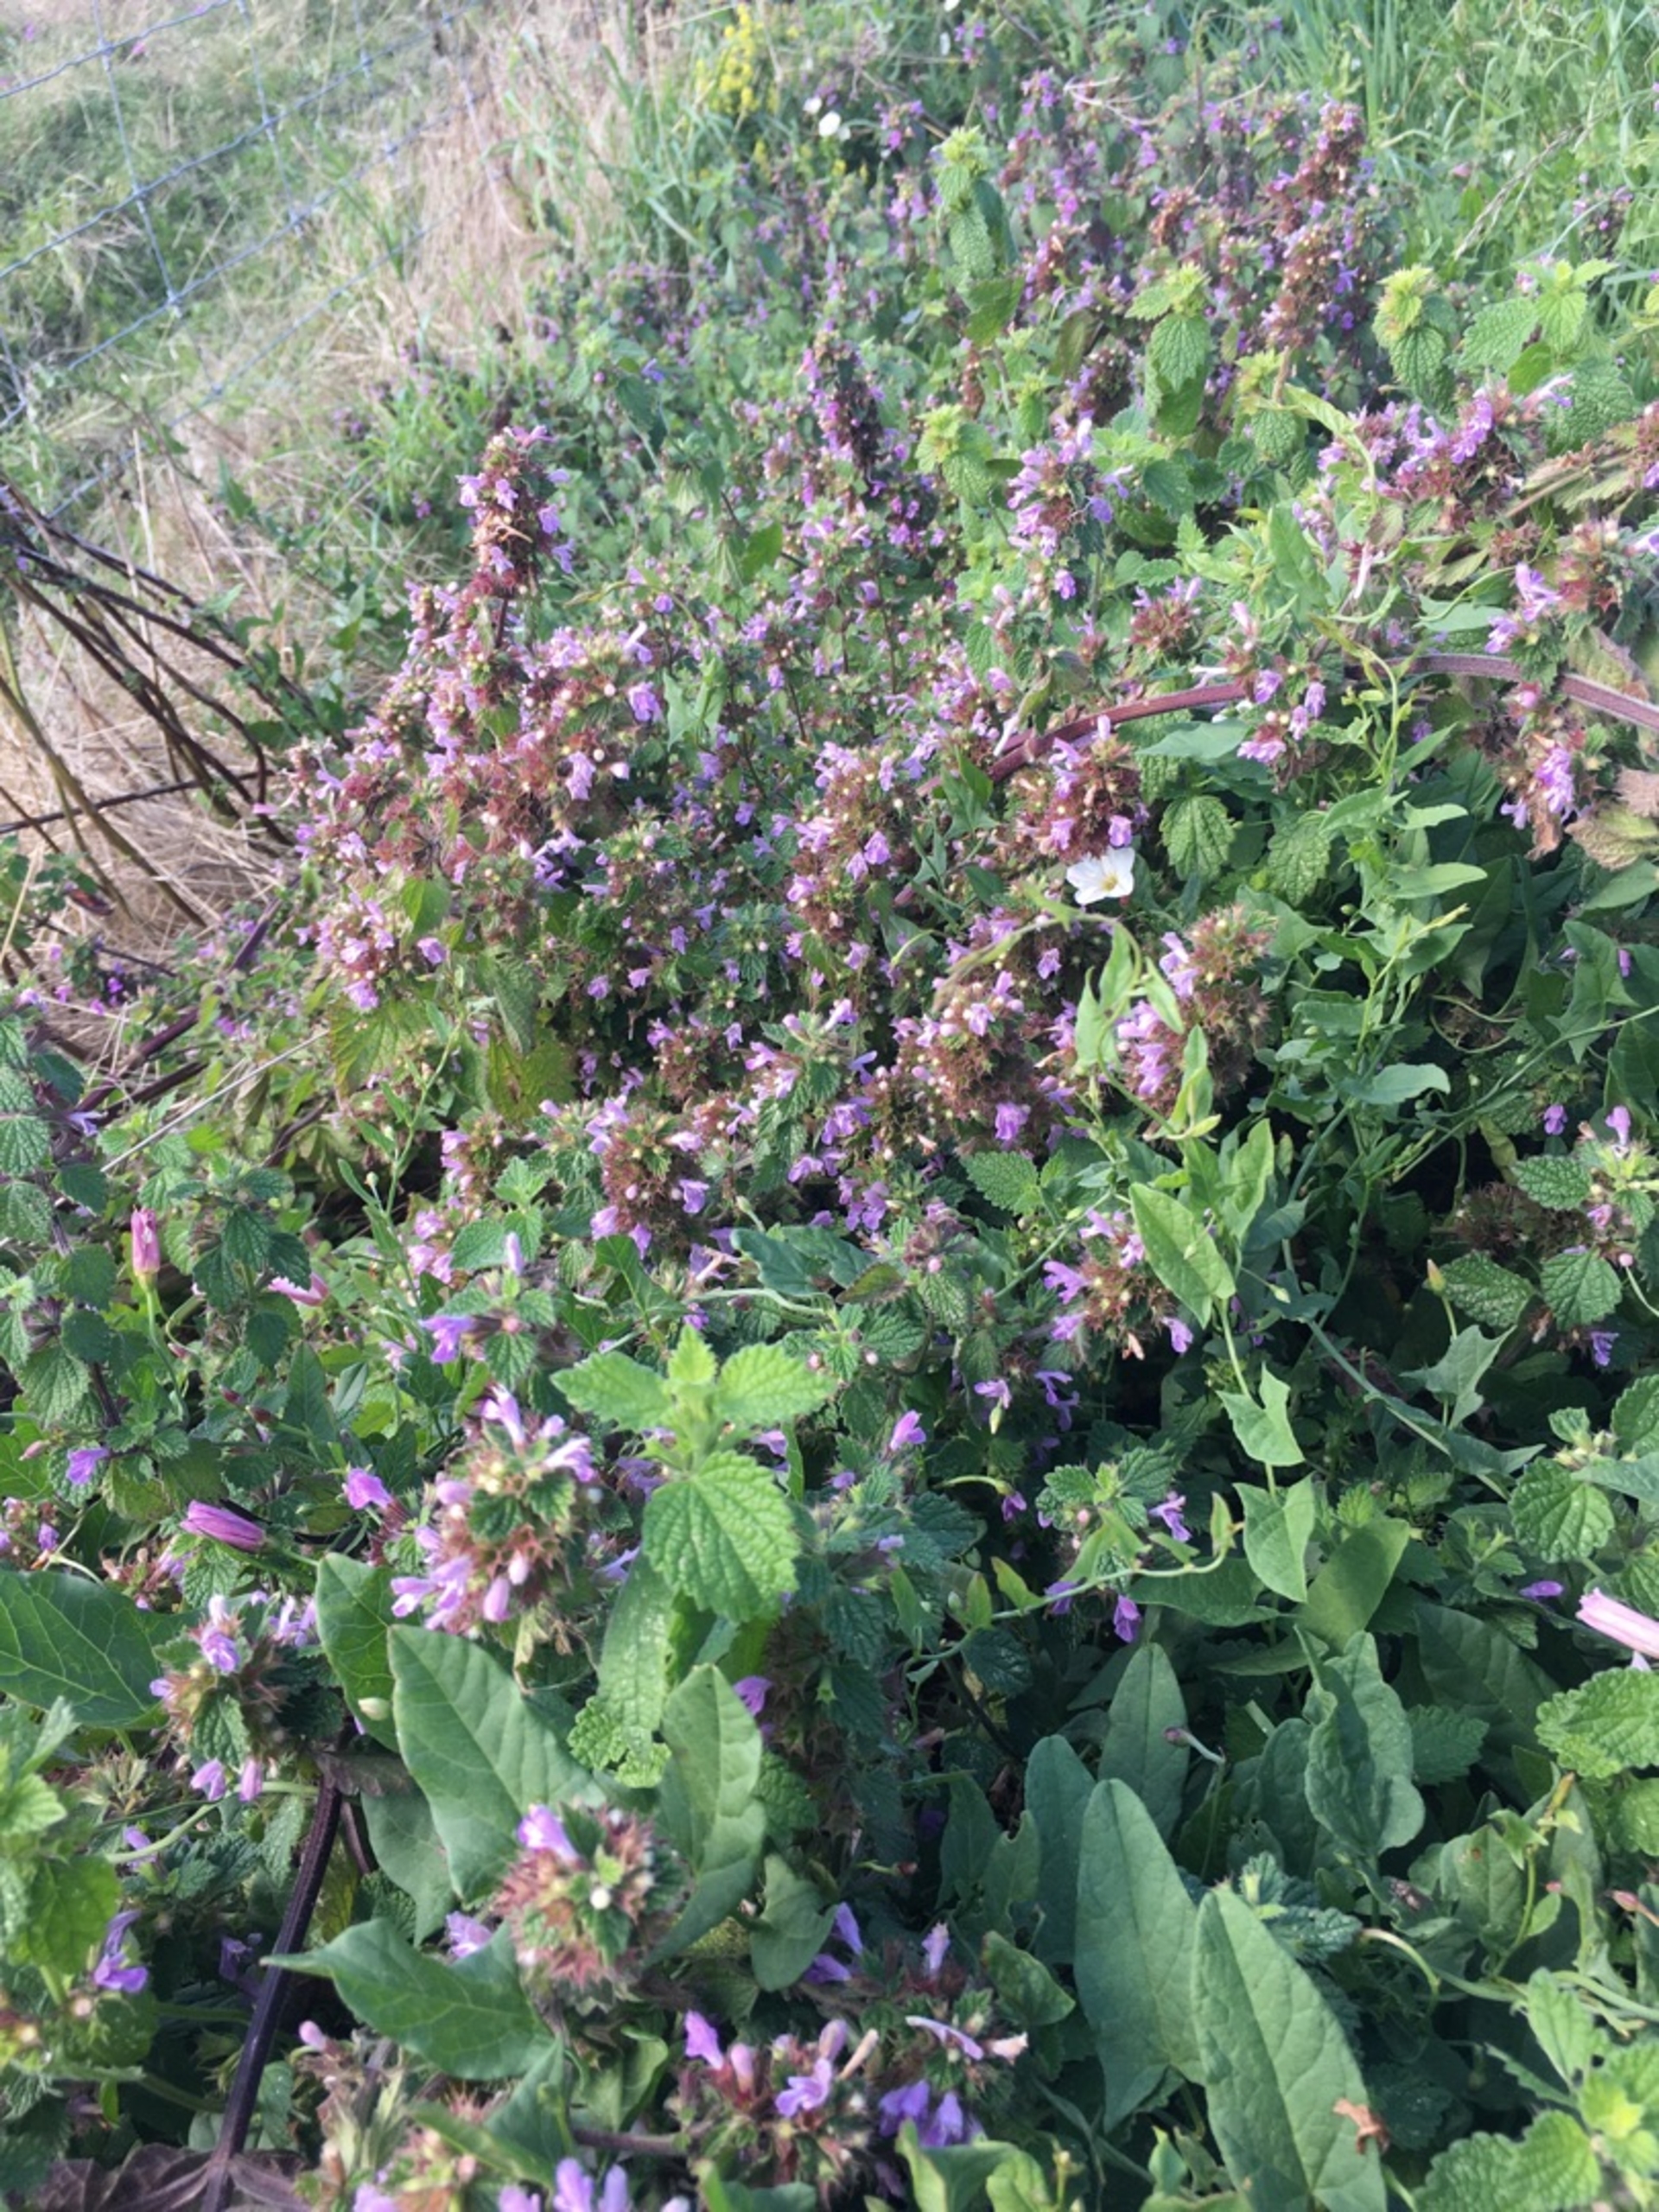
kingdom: Plantae
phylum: Tracheophyta
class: Magnoliopsida
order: Lamiales
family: Lamiaceae
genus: Ballota
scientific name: Ballota nigra
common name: Rød tandbæger
